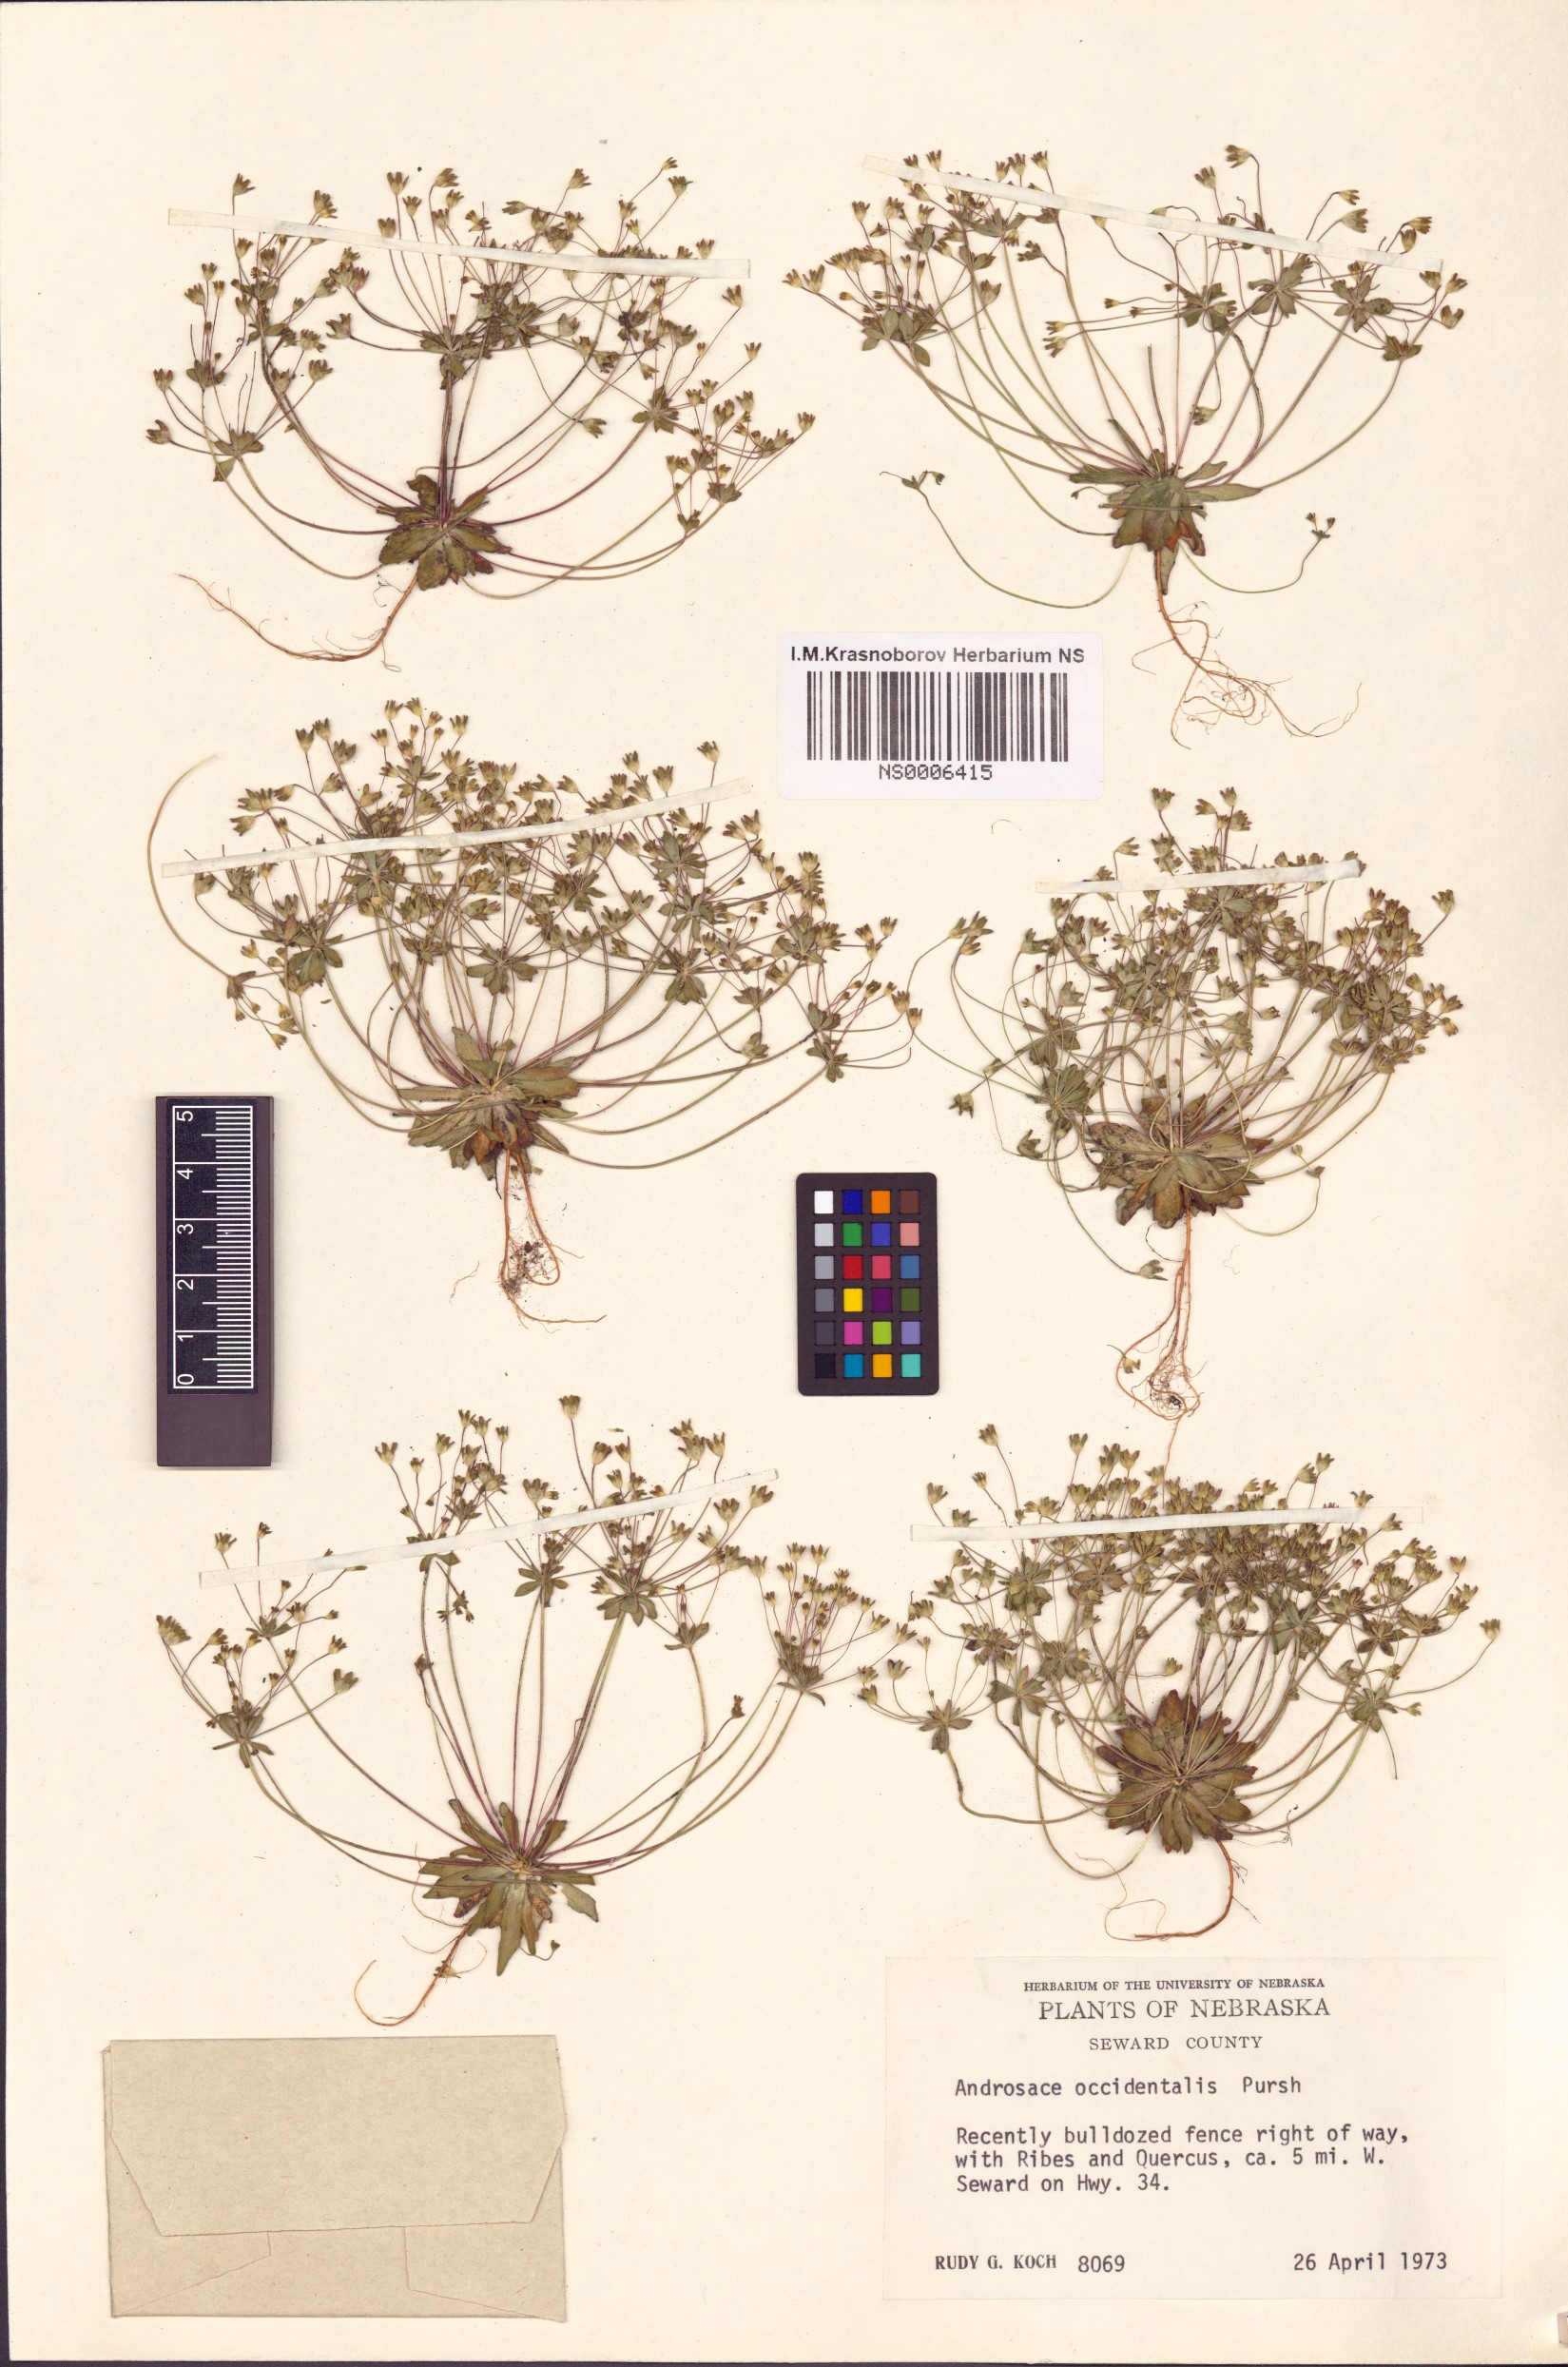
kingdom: Plantae
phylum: Tracheophyta
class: Magnoliopsida
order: Ericales
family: Primulaceae
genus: Androsace
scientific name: Androsace occidentalis
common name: West rock-jasmine
